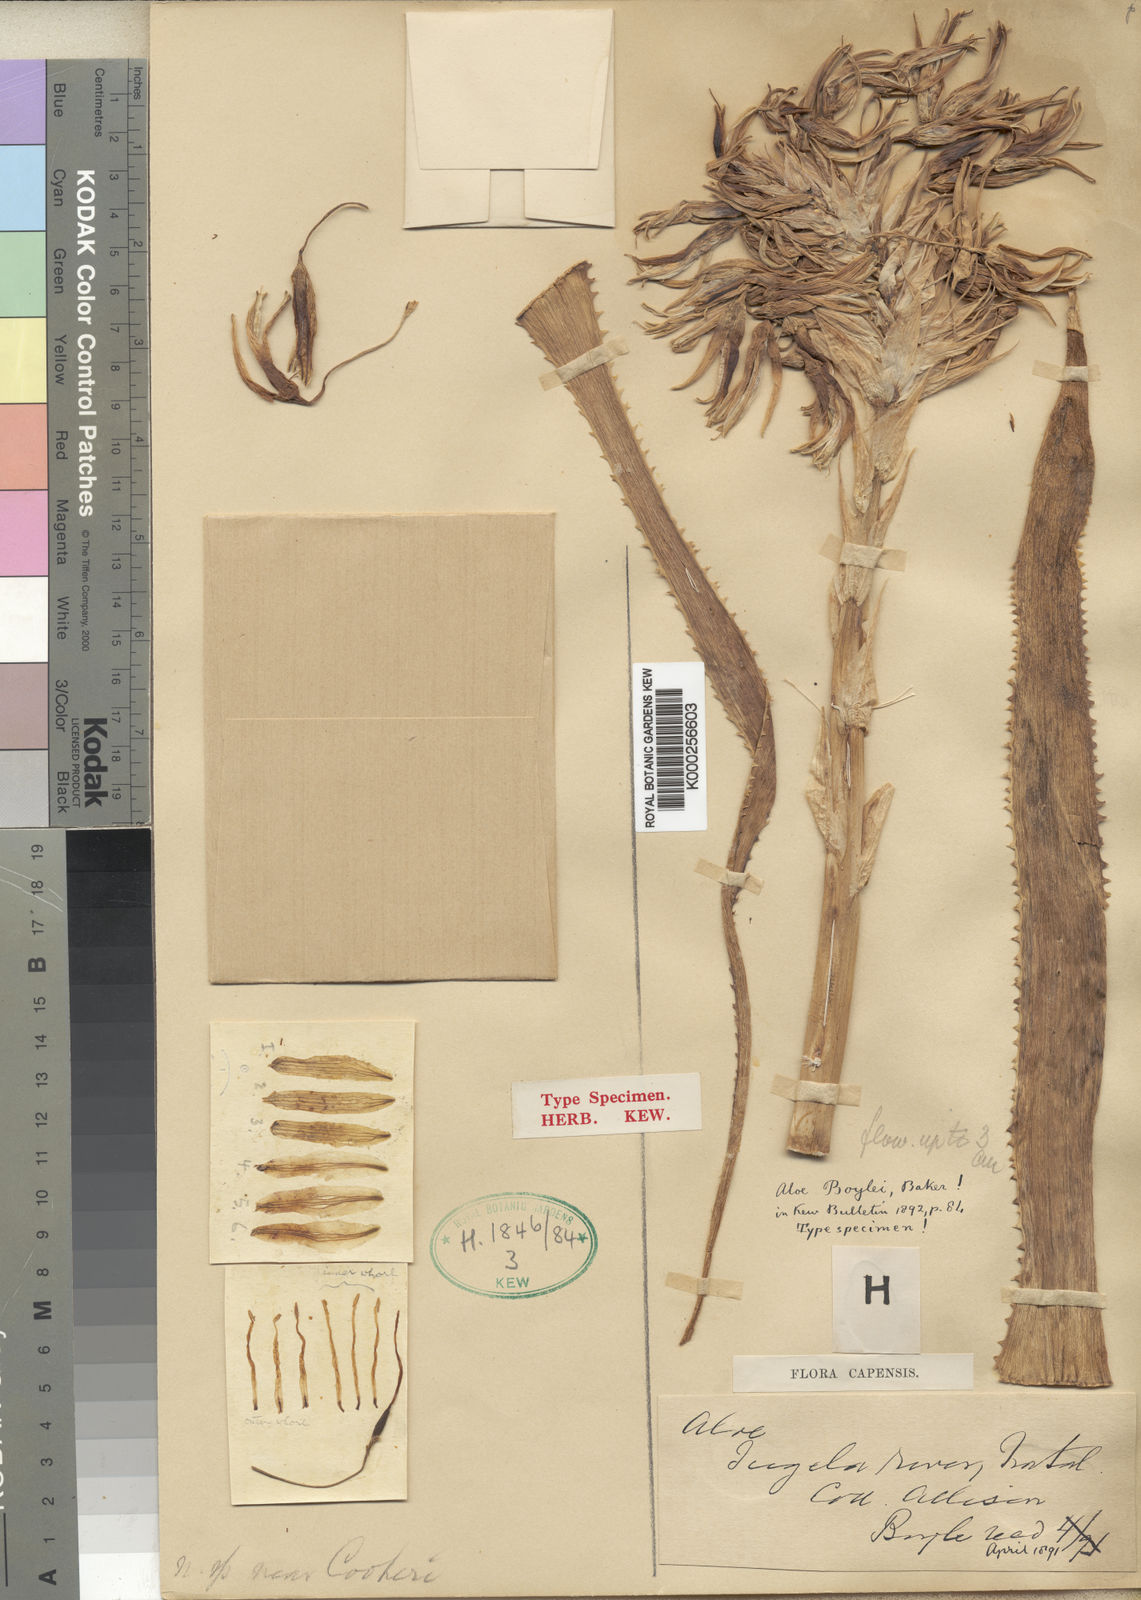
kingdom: Plantae
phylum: Tracheophyta
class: Liliopsida
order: Asparagales
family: Asphodelaceae
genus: Aloe
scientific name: Aloe boylei
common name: Broad-leaved grass aloe
